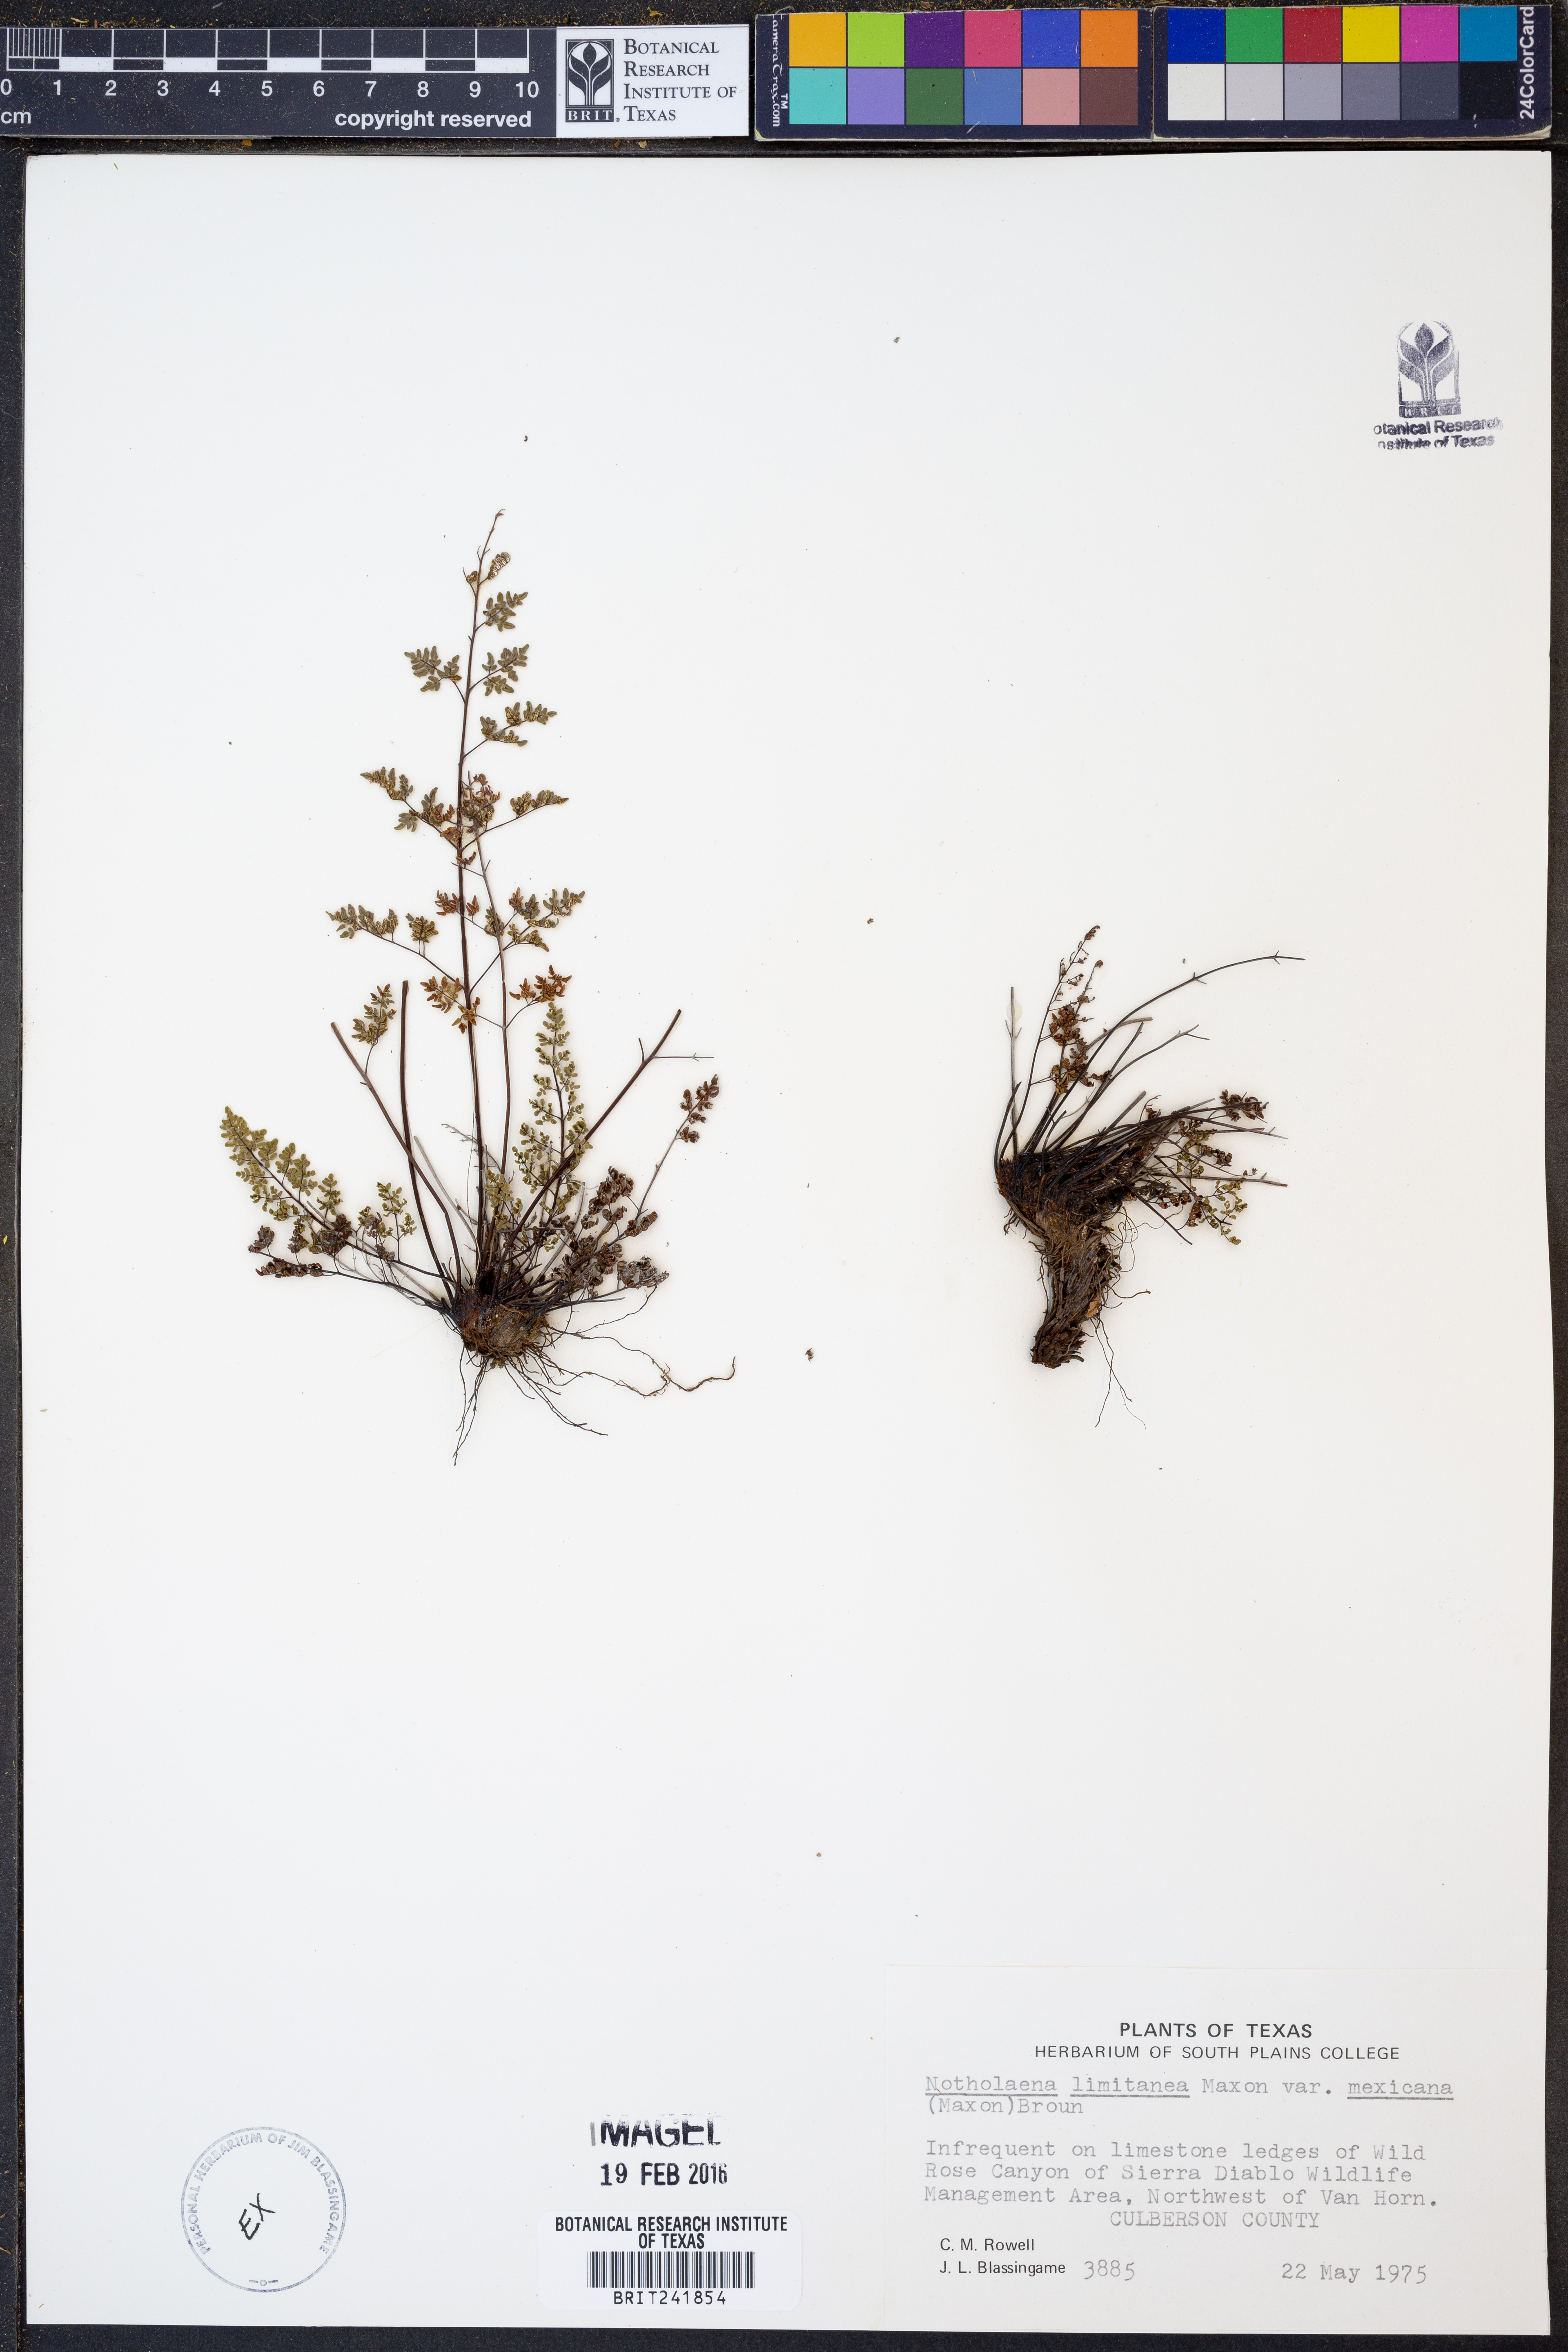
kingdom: Plantae
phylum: Tracheophyta
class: Polypodiopsida
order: Polypodiales
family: Pteridaceae
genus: Argyrochosma
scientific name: Argyrochosma limitanea
